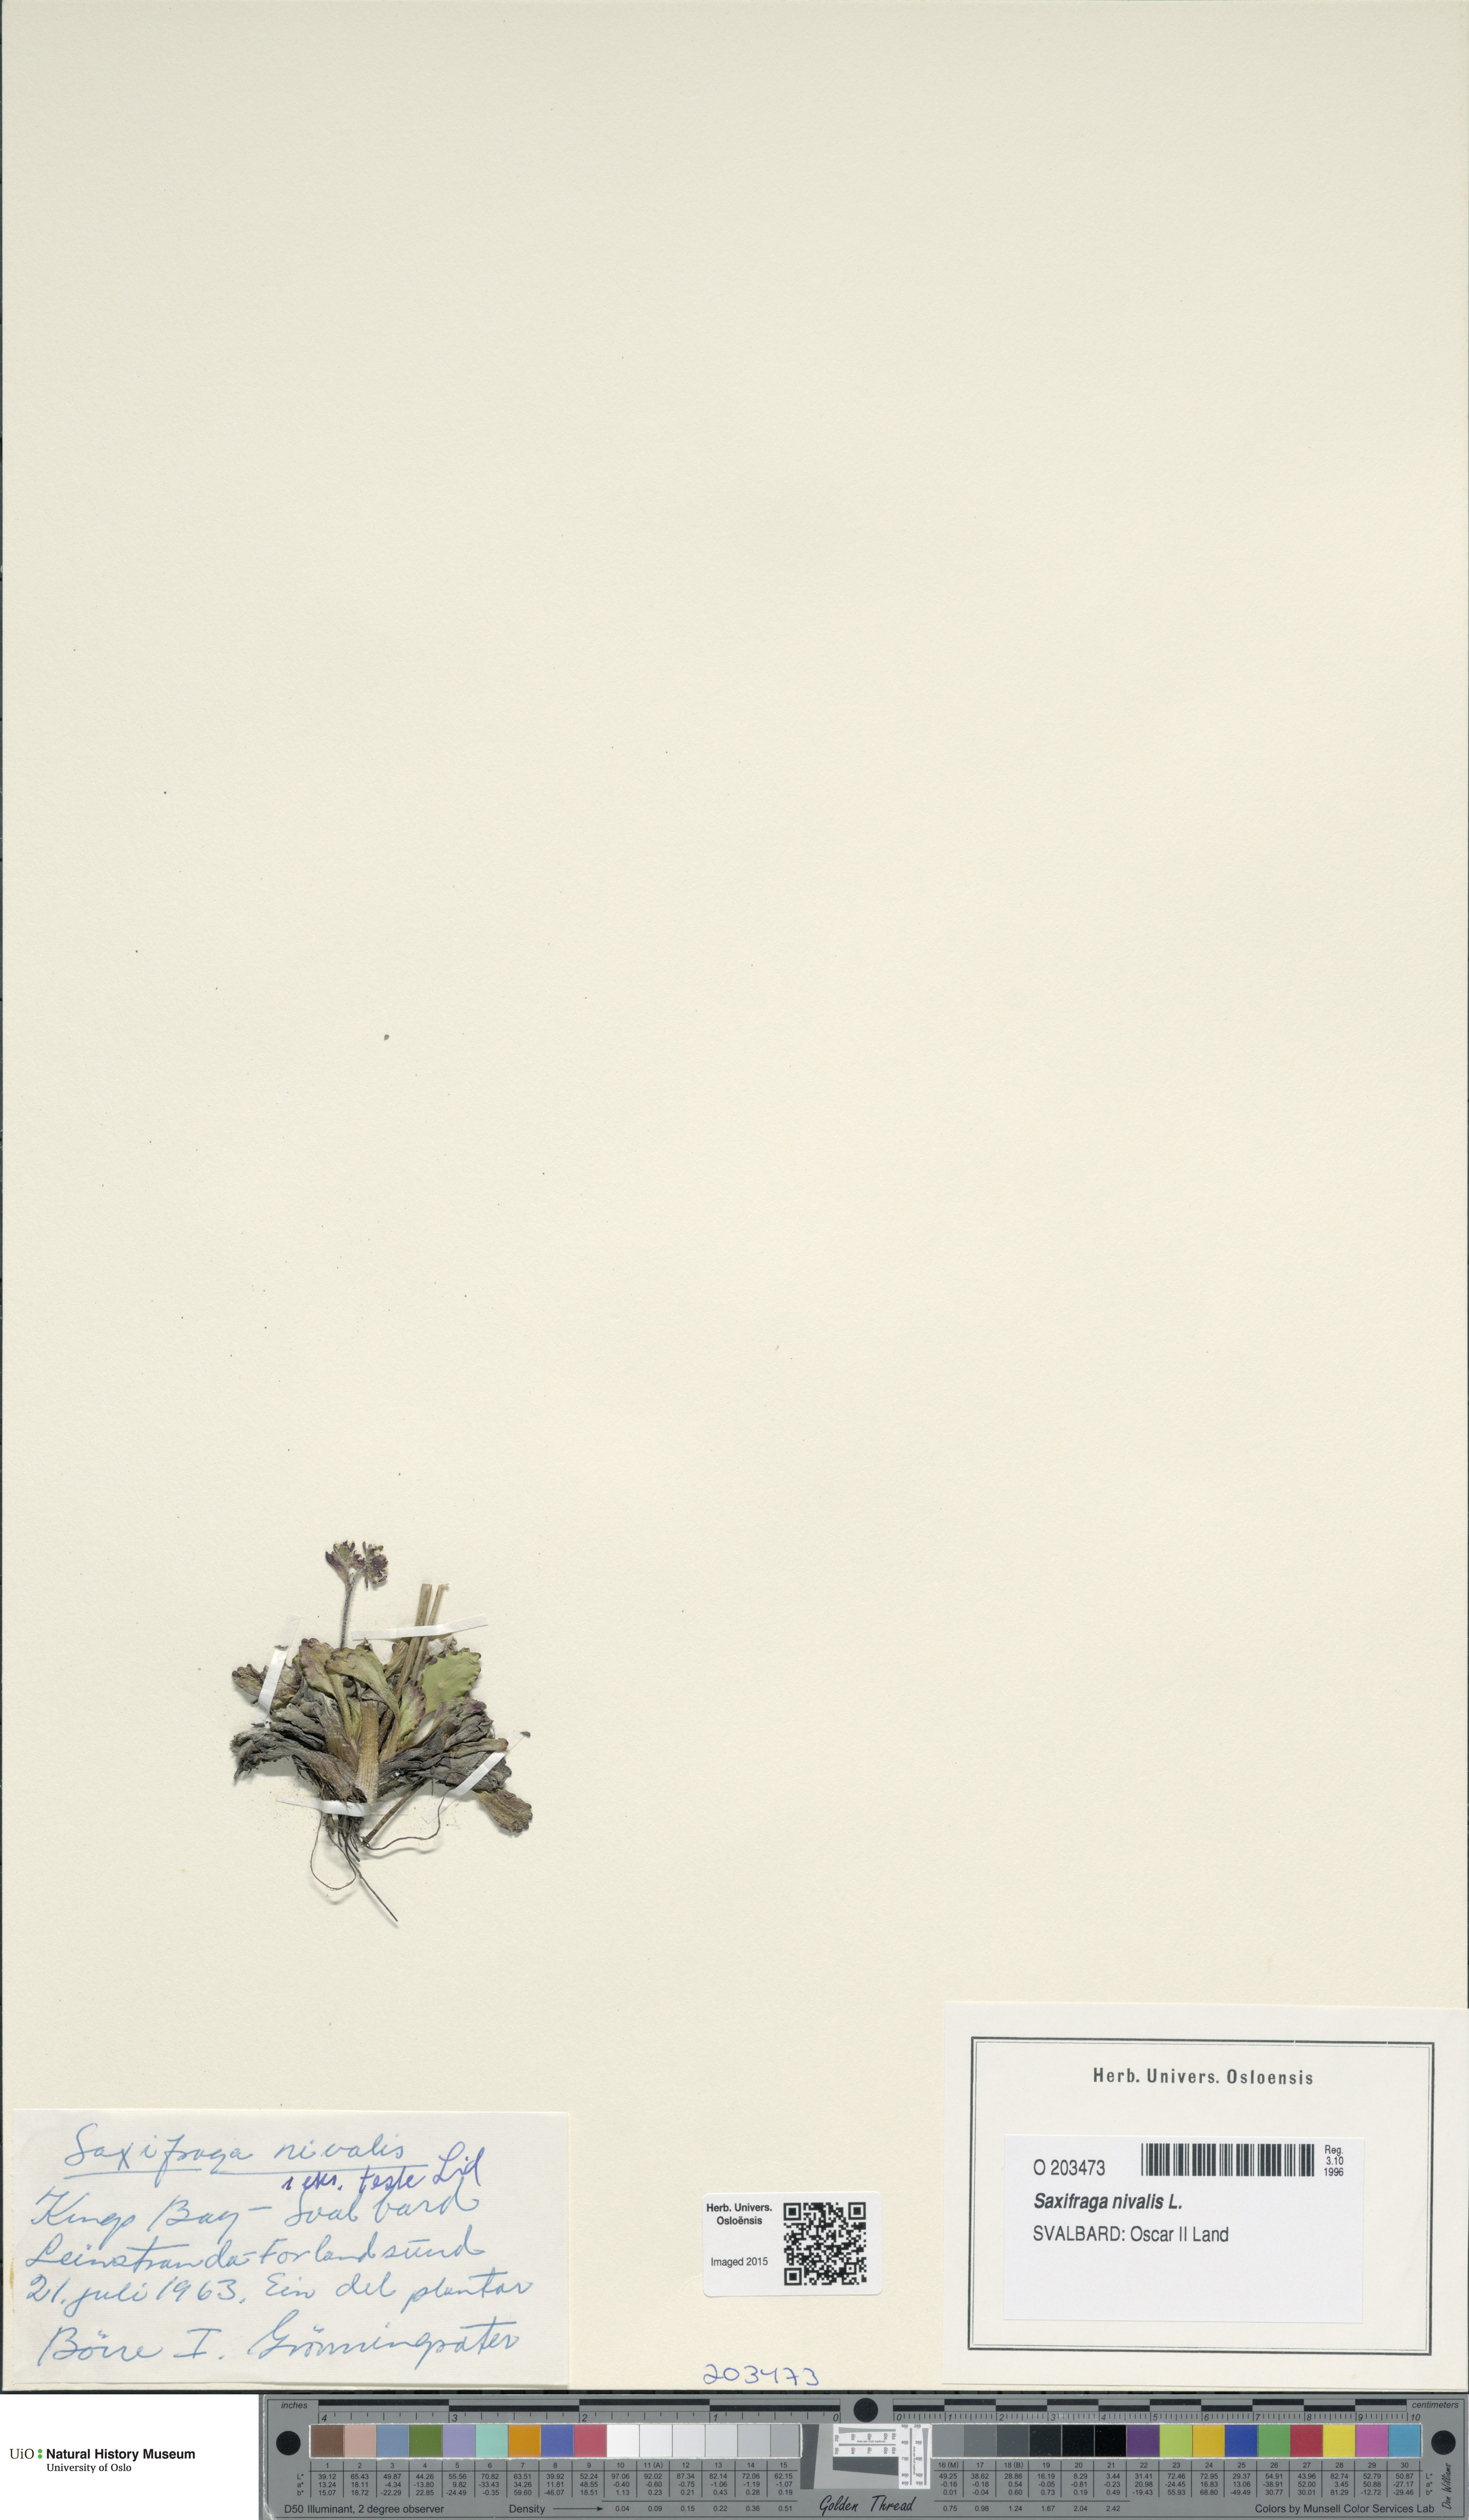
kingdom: Plantae
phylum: Tracheophyta
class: Magnoliopsida
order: Saxifragales
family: Saxifragaceae
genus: Micranthes
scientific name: Micranthes nivalis
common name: Alpine saxifrage
